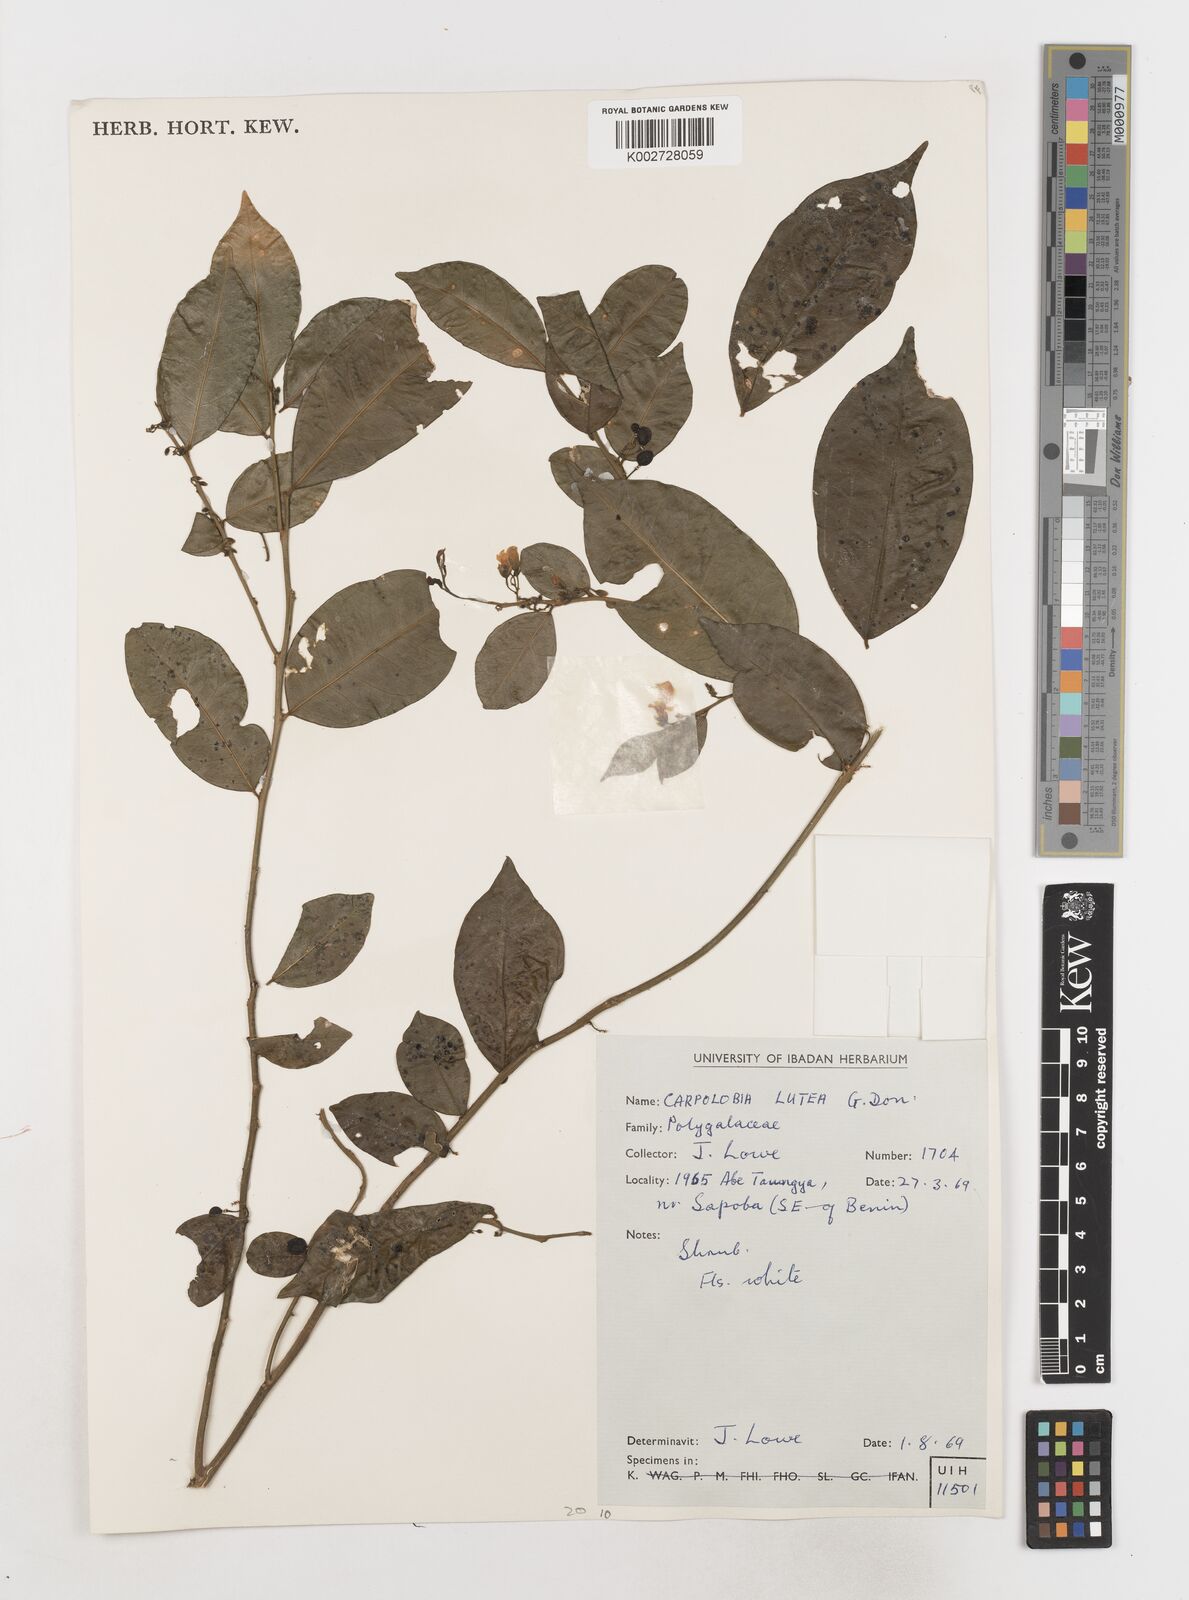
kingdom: Plantae
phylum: Tracheophyta
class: Magnoliopsida
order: Fabales
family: Polygalaceae
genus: Carpolobia
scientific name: Carpolobia lutea
